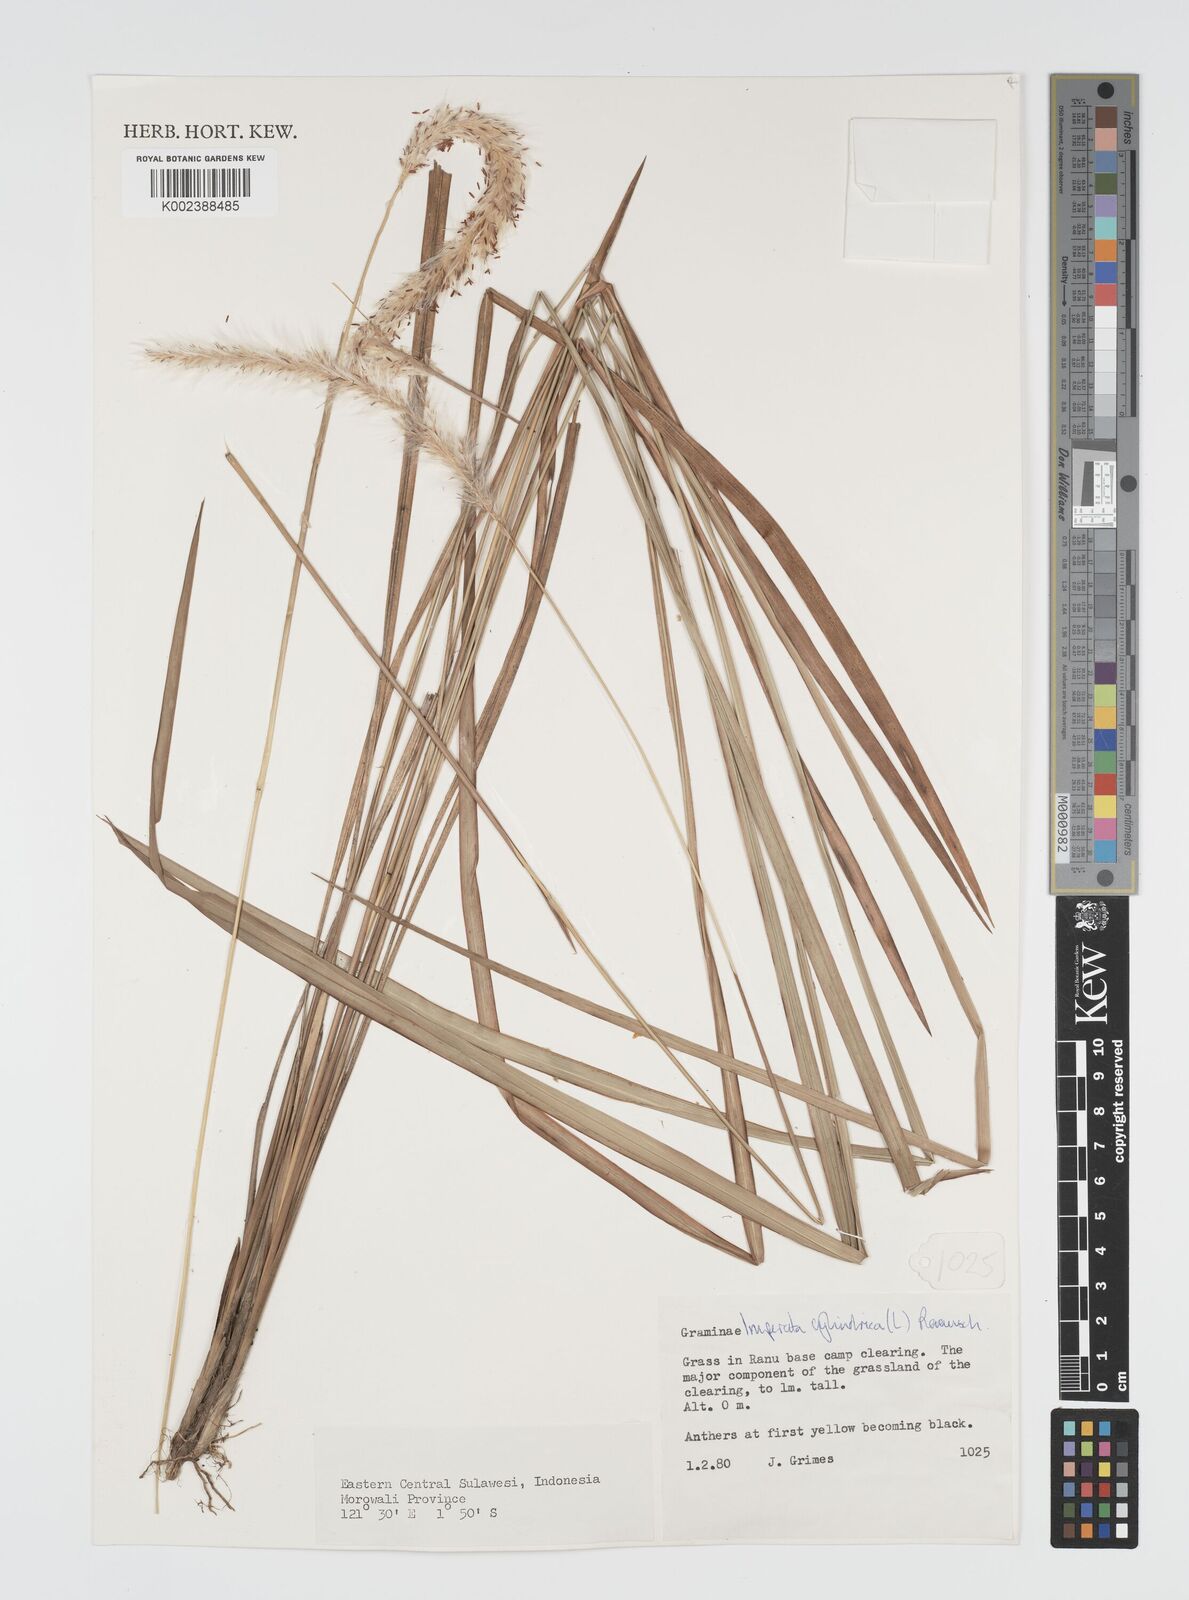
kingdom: Plantae
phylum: Tracheophyta
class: Liliopsida
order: Poales
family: Poaceae
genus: Imperata
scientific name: Imperata cylindrica
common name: Cogongrass
